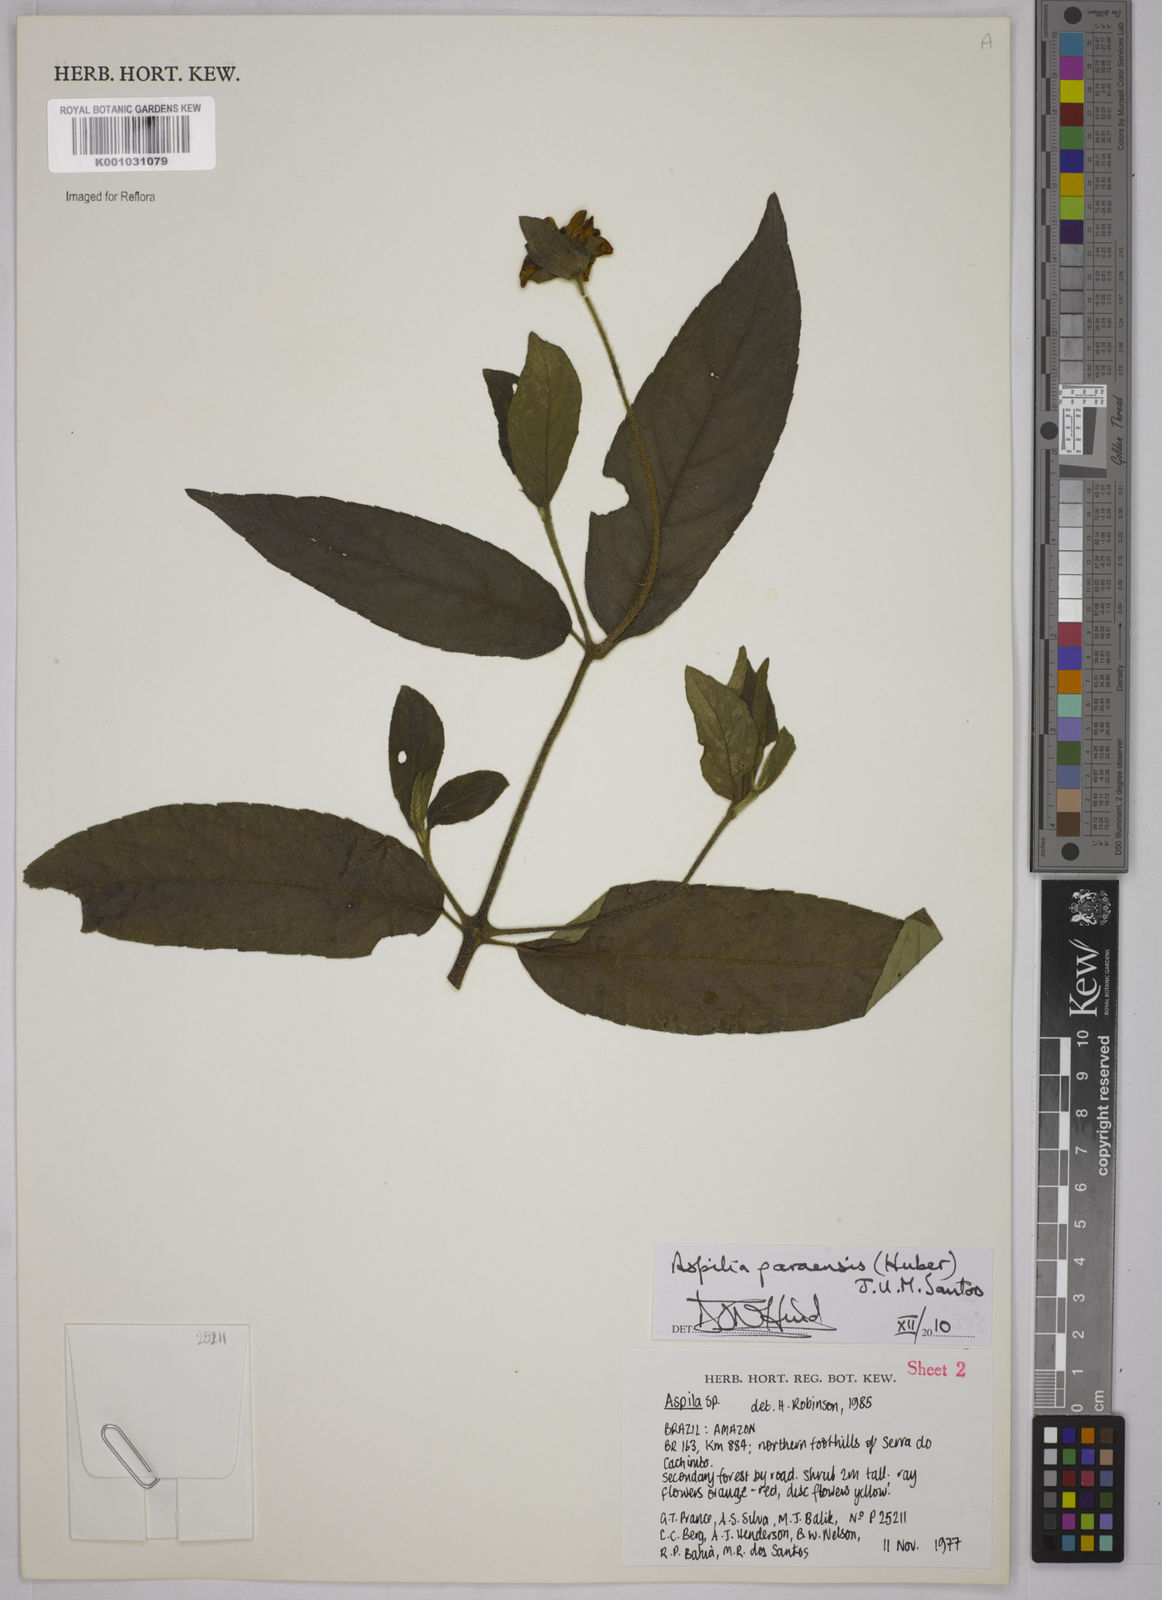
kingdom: Plantae
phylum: Tracheophyta
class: Magnoliopsida
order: Asterales
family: Asteraceae
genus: Aspilia
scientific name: Aspilia paraensis
